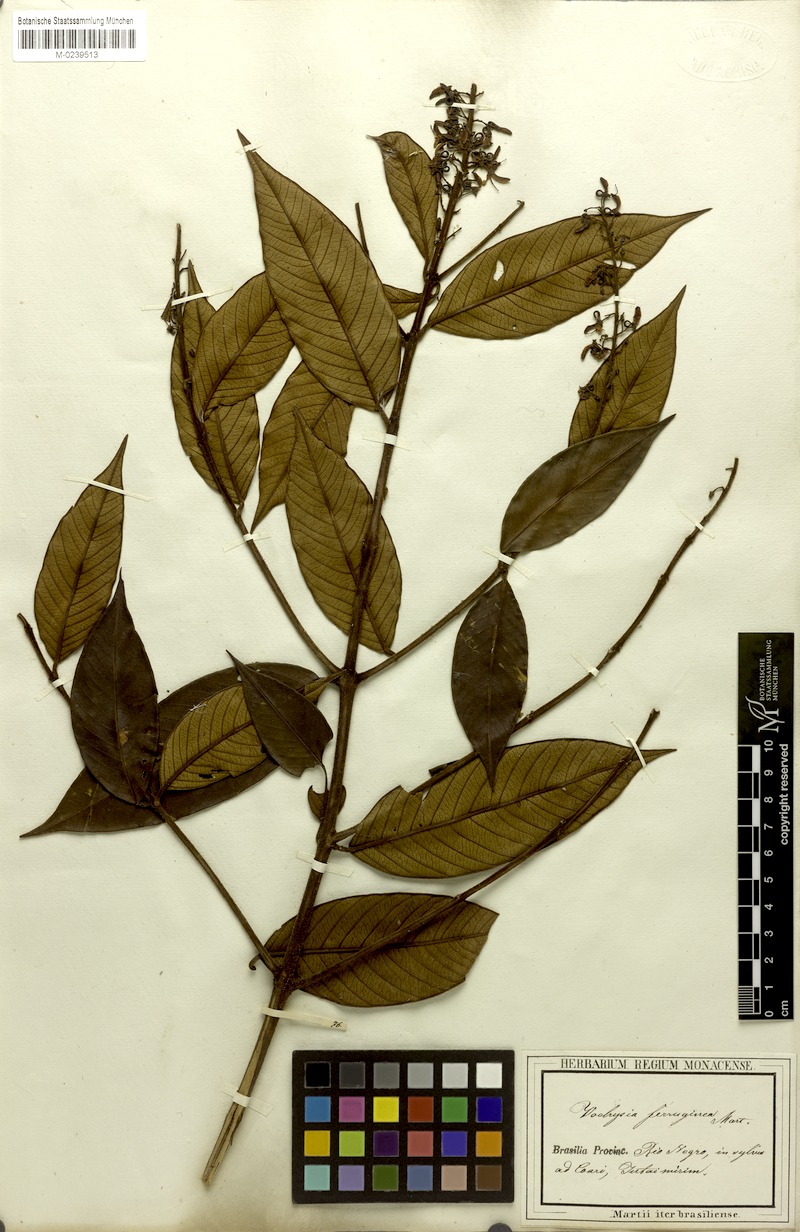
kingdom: Plantae
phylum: Tracheophyta
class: Magnoliopsida
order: Myrtales
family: Vochysiaceae
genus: Vochysia
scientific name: Vochysia ferruginea
